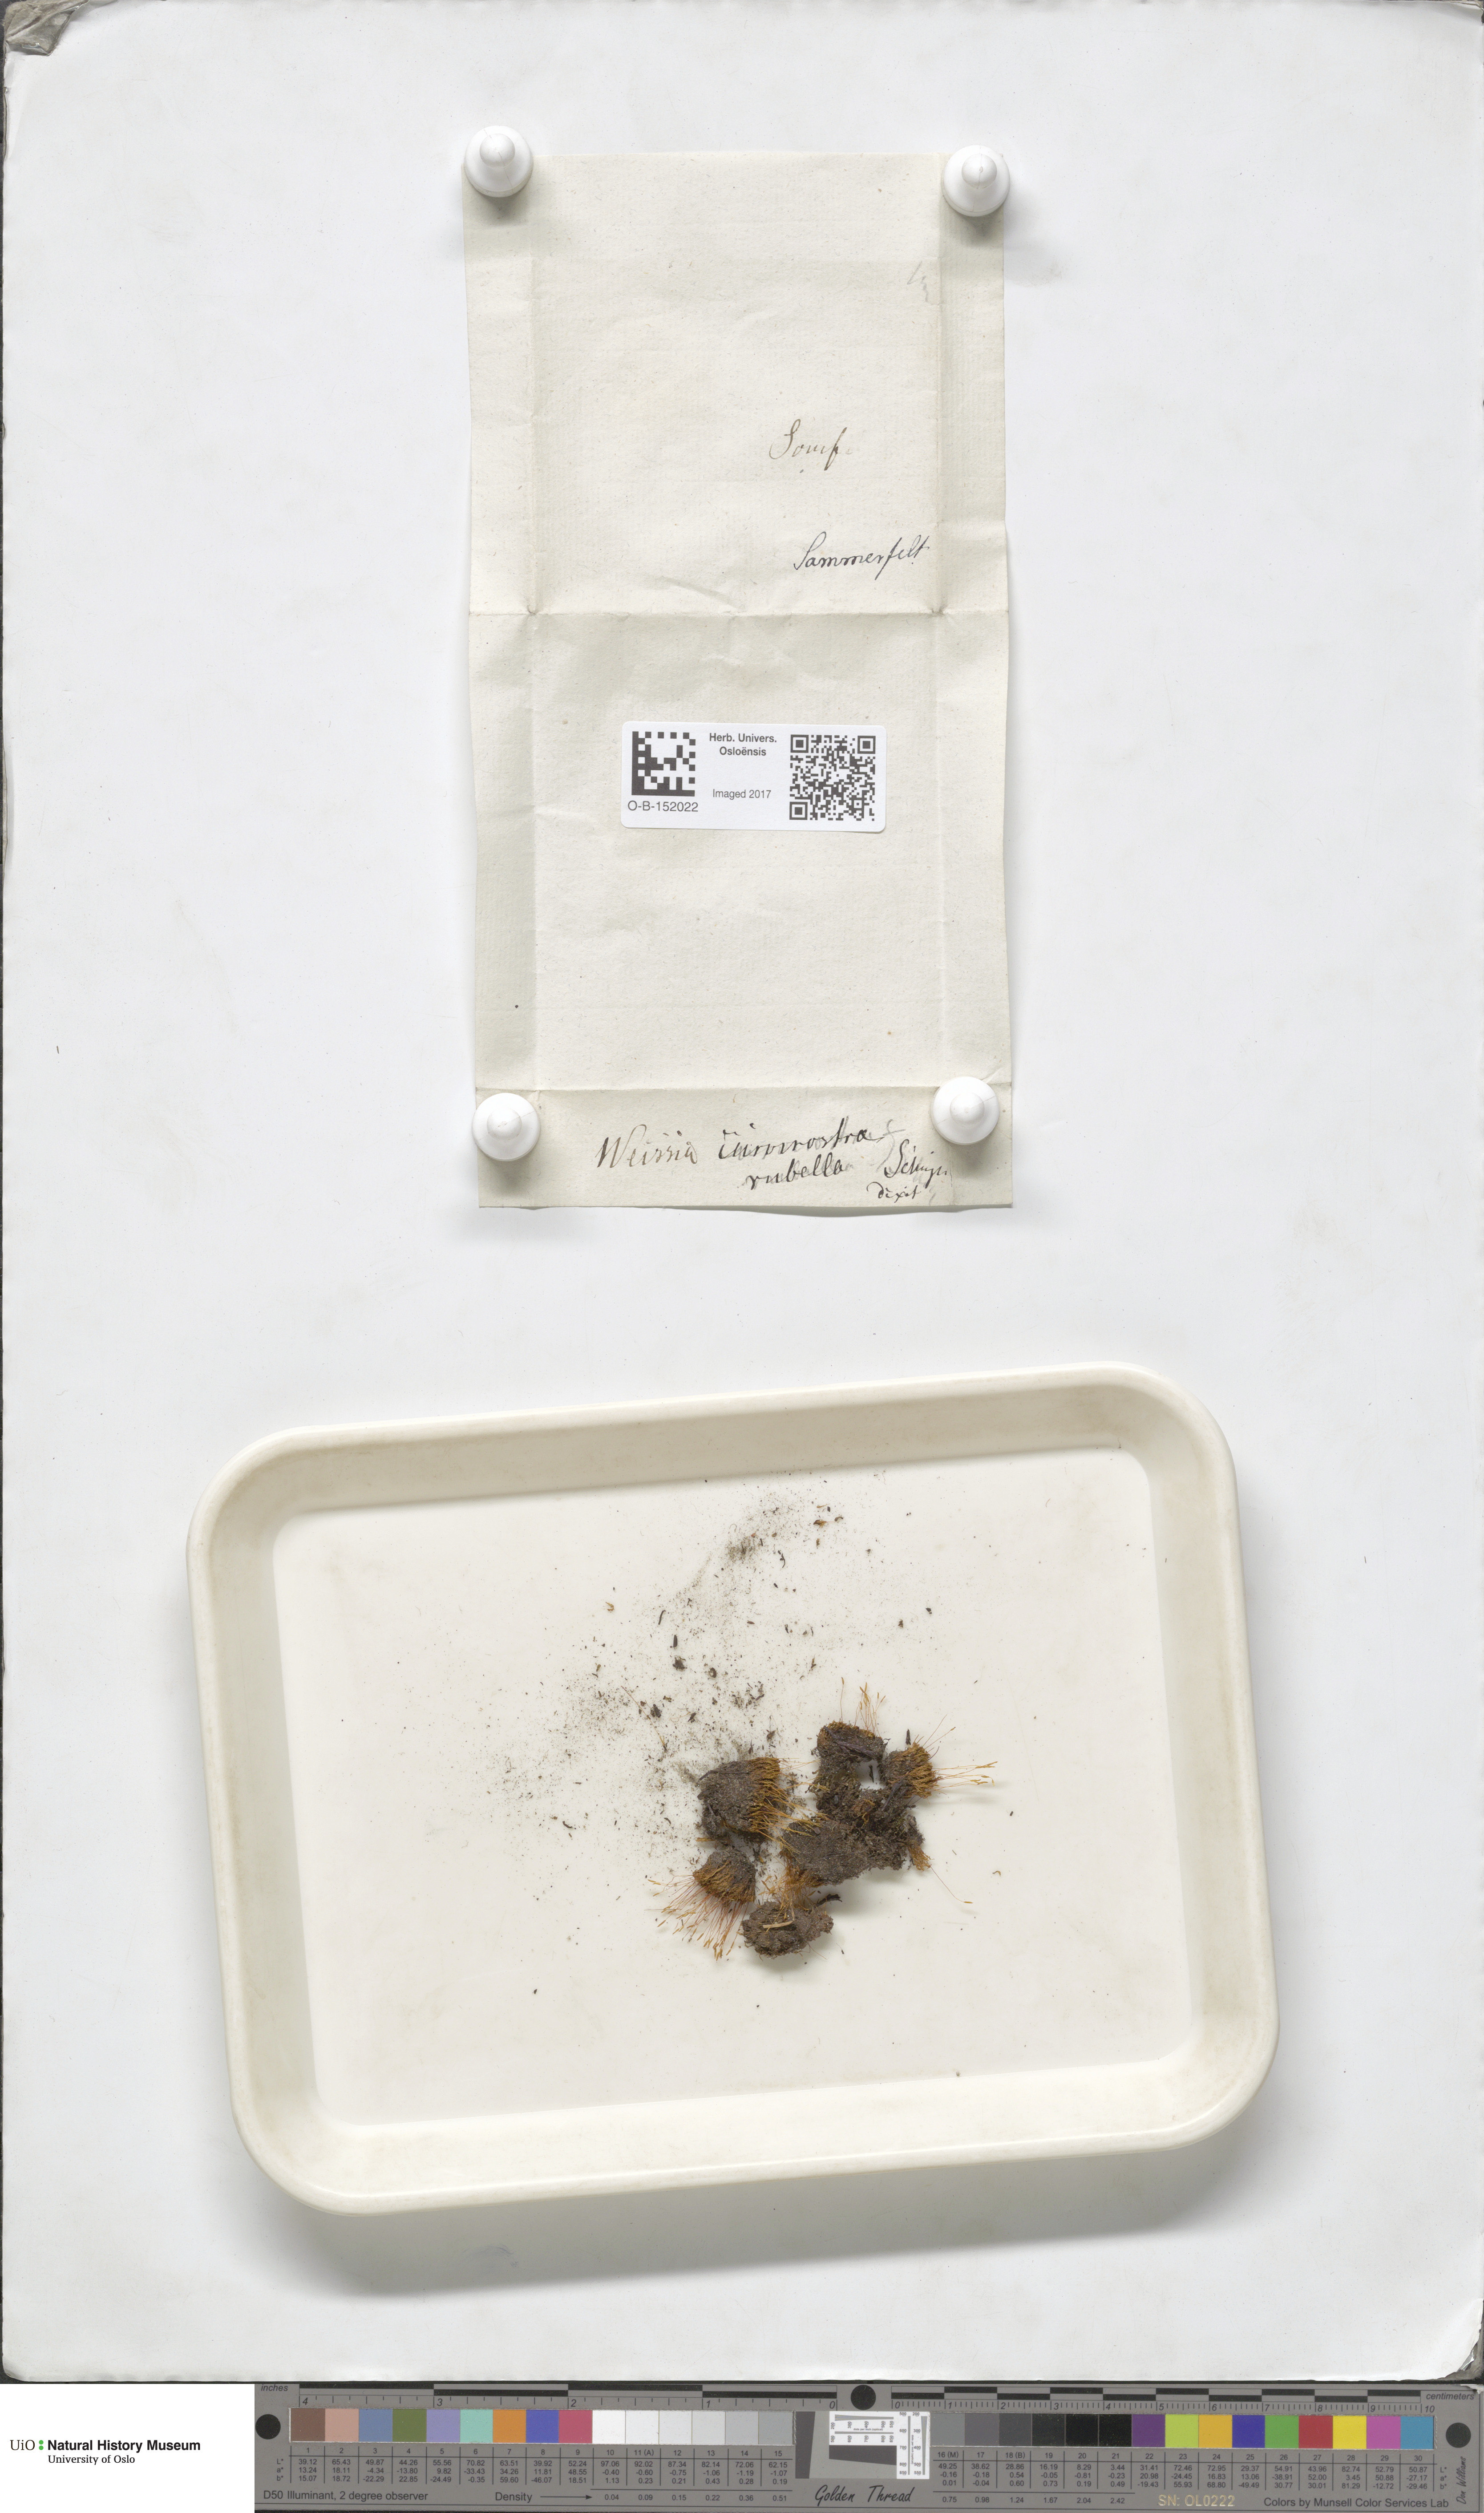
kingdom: Plantae
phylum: Bryophyta
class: Bryopsida
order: Pottiales
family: Pottiaceae
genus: Bryoerythrophyllum
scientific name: Bryoerythrophyllum recurvirostrum
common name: Red beard moss
